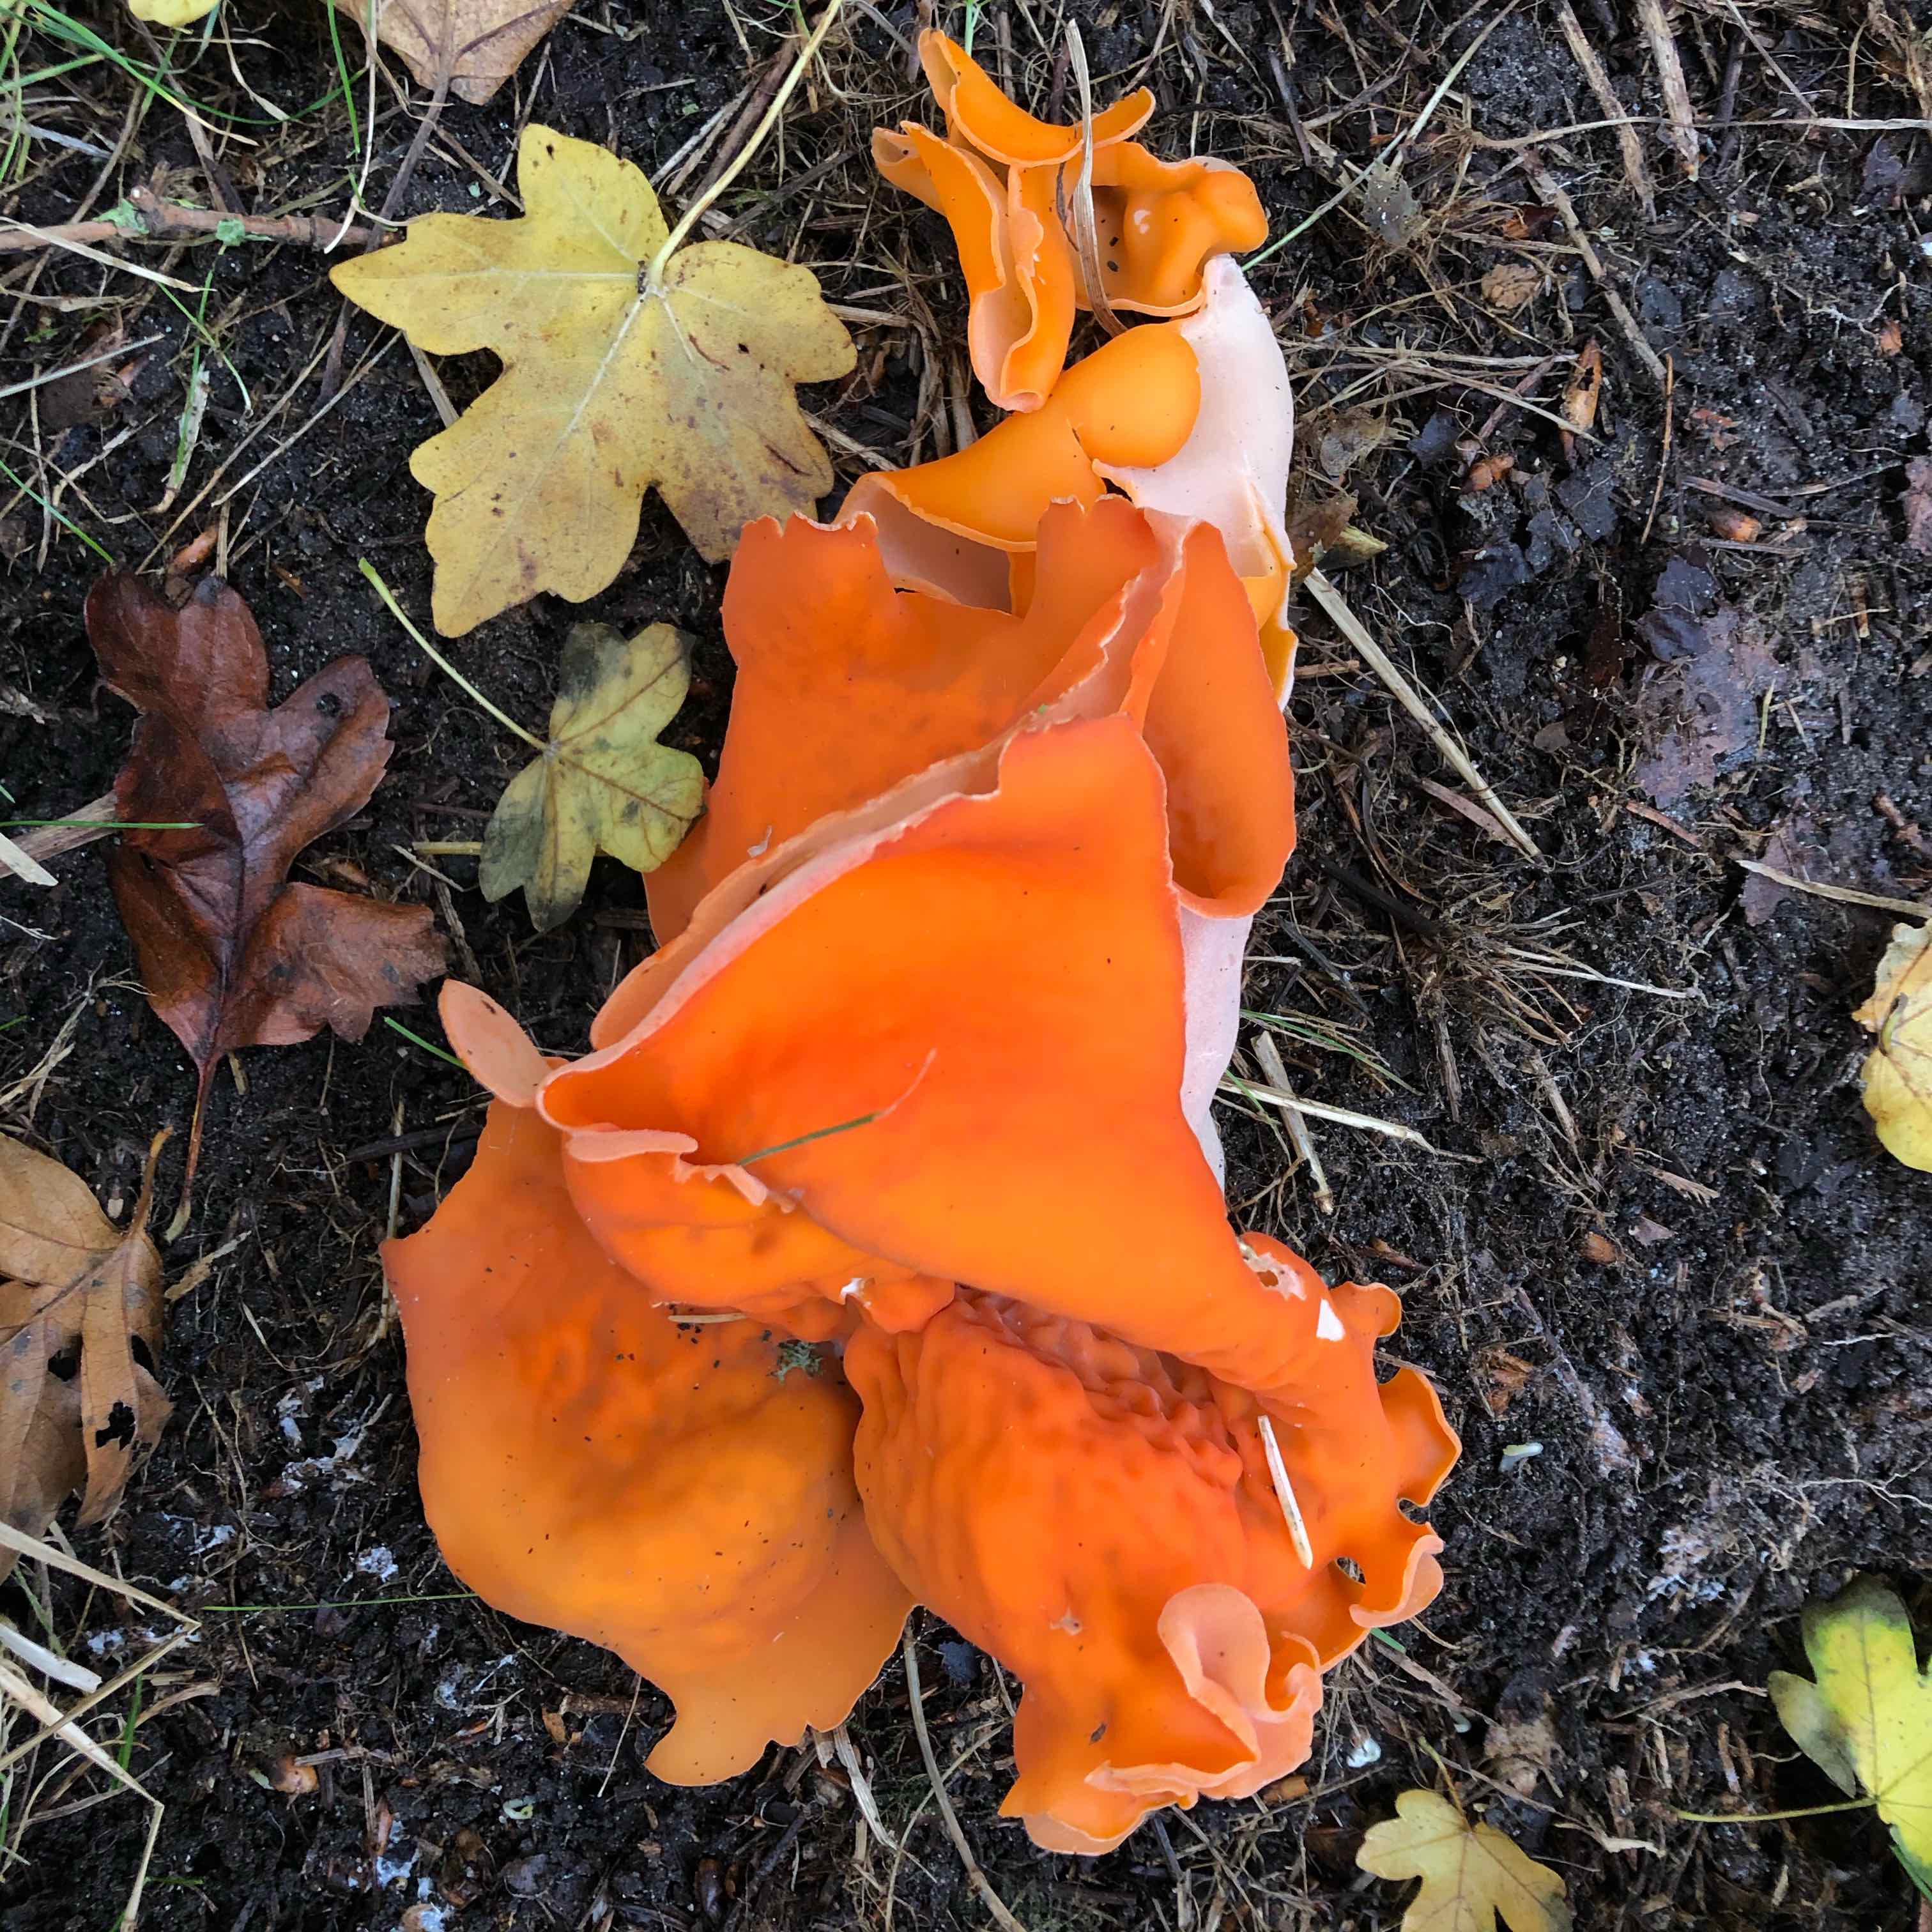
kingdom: Fungi
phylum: Ascomycota
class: Pezizomycetes
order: Pezizales
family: Pyronemataceae
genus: Aleuria
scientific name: Aleuria aurantia
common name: almindelig orangebæger
